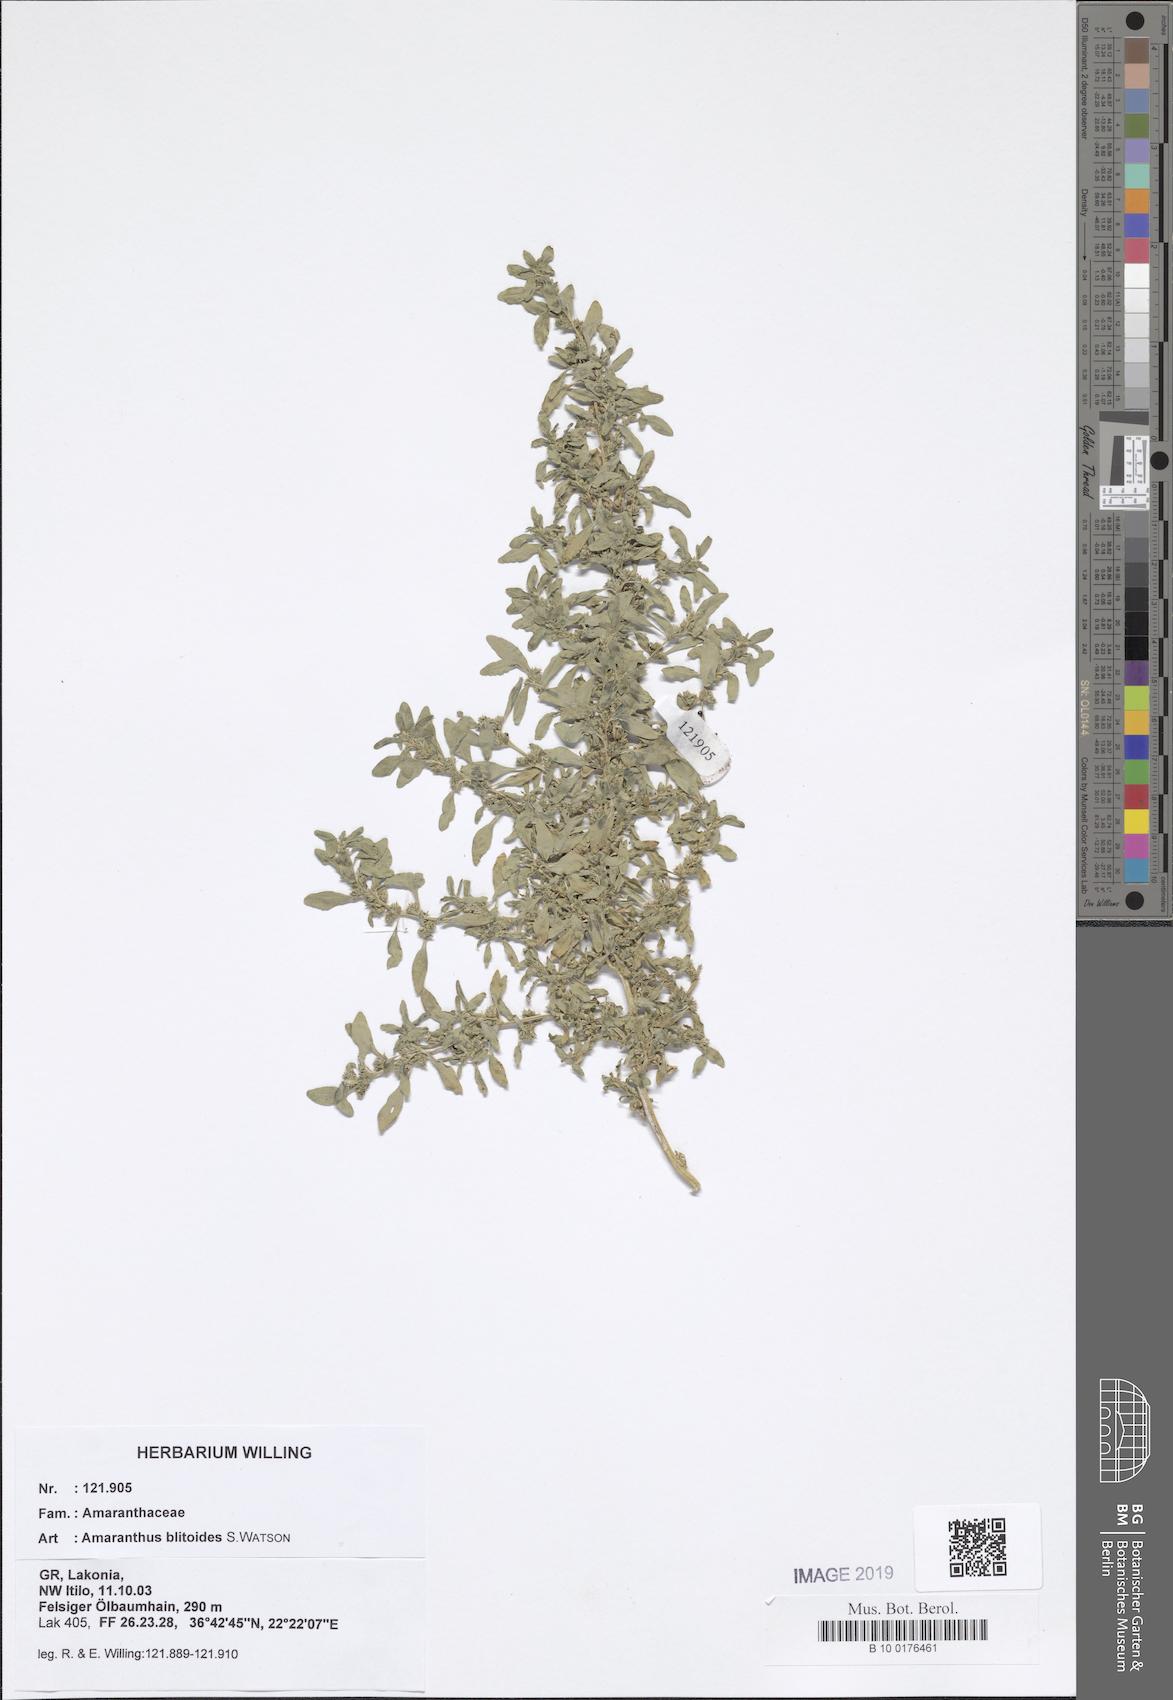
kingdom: Plantae
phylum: Tracheophyta
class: Magnoliopsida
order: Caryophyllales
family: Amaranthaceae
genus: Amaranthus
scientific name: Amaranthus blitoides
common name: Prostrate pigweed
